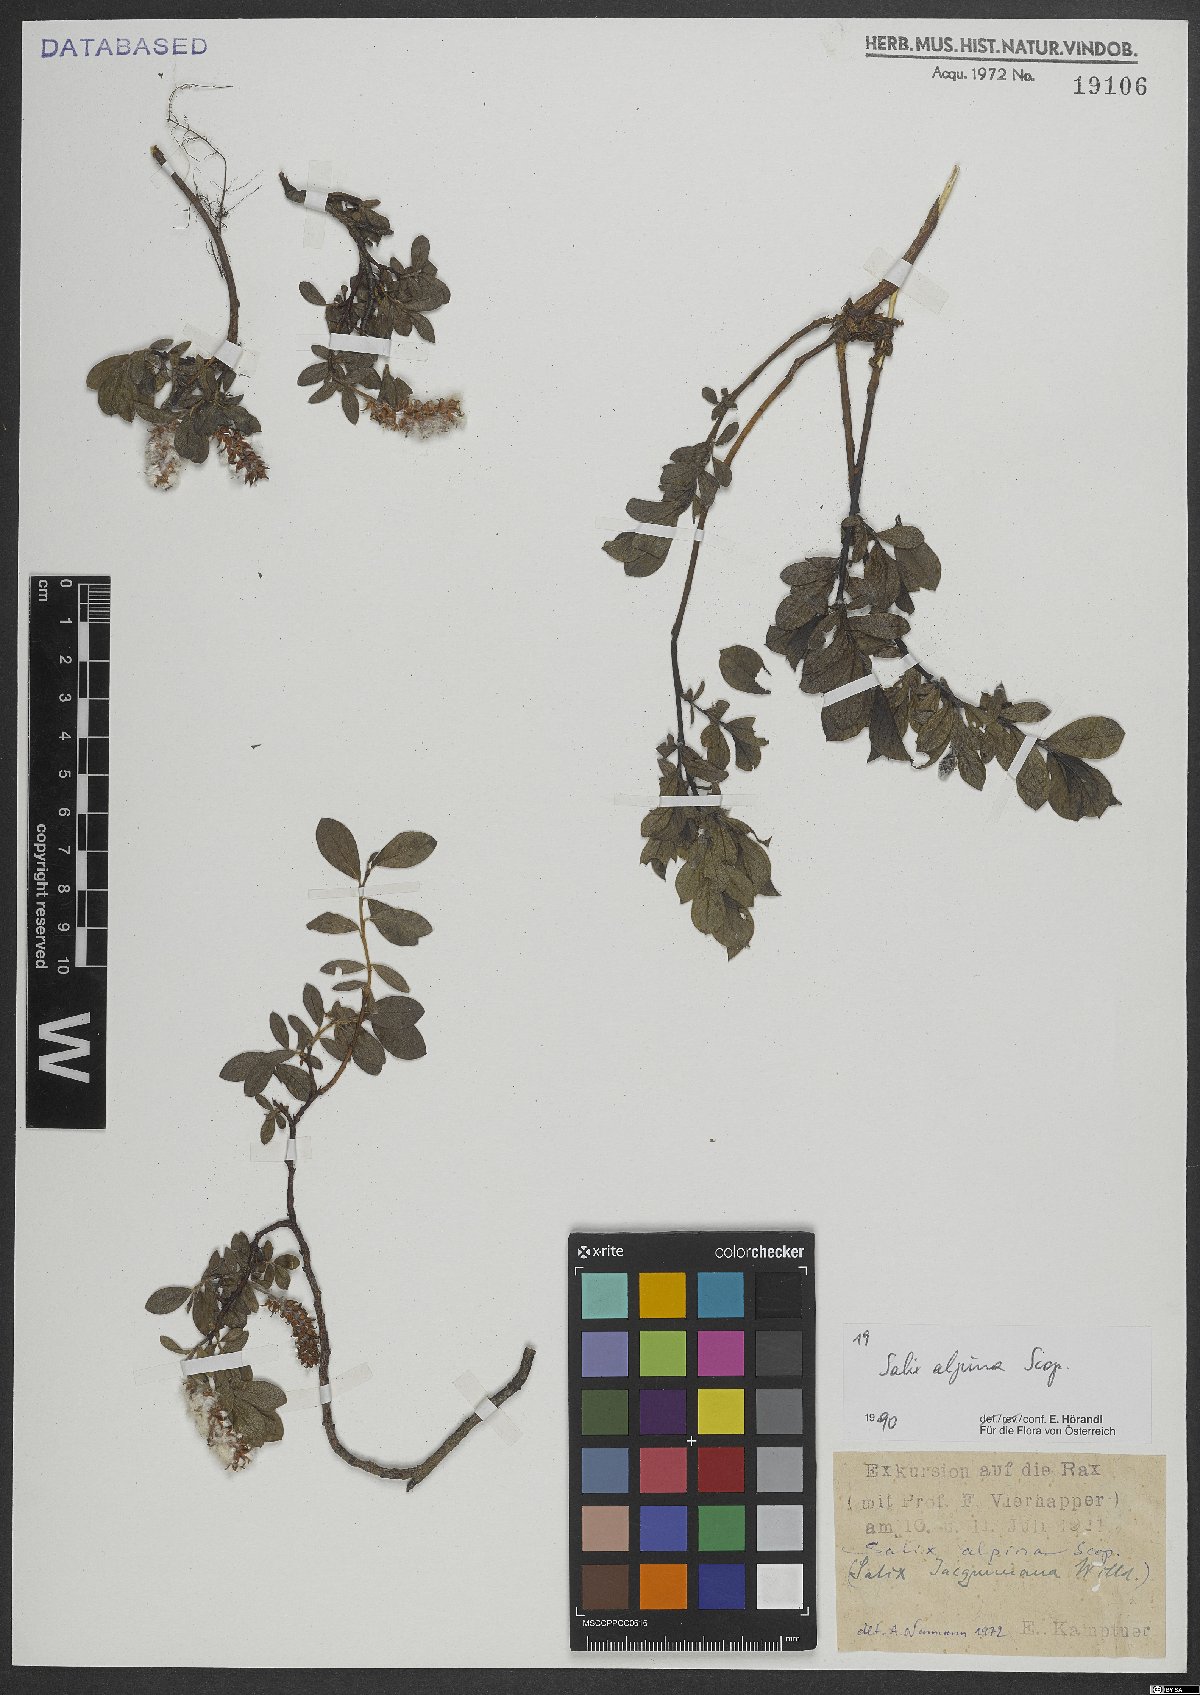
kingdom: Plantae
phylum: Tracheophyta
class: Magnoliopsida
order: Malpighiales
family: Salicaceae
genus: Salix
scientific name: Salix alpina
